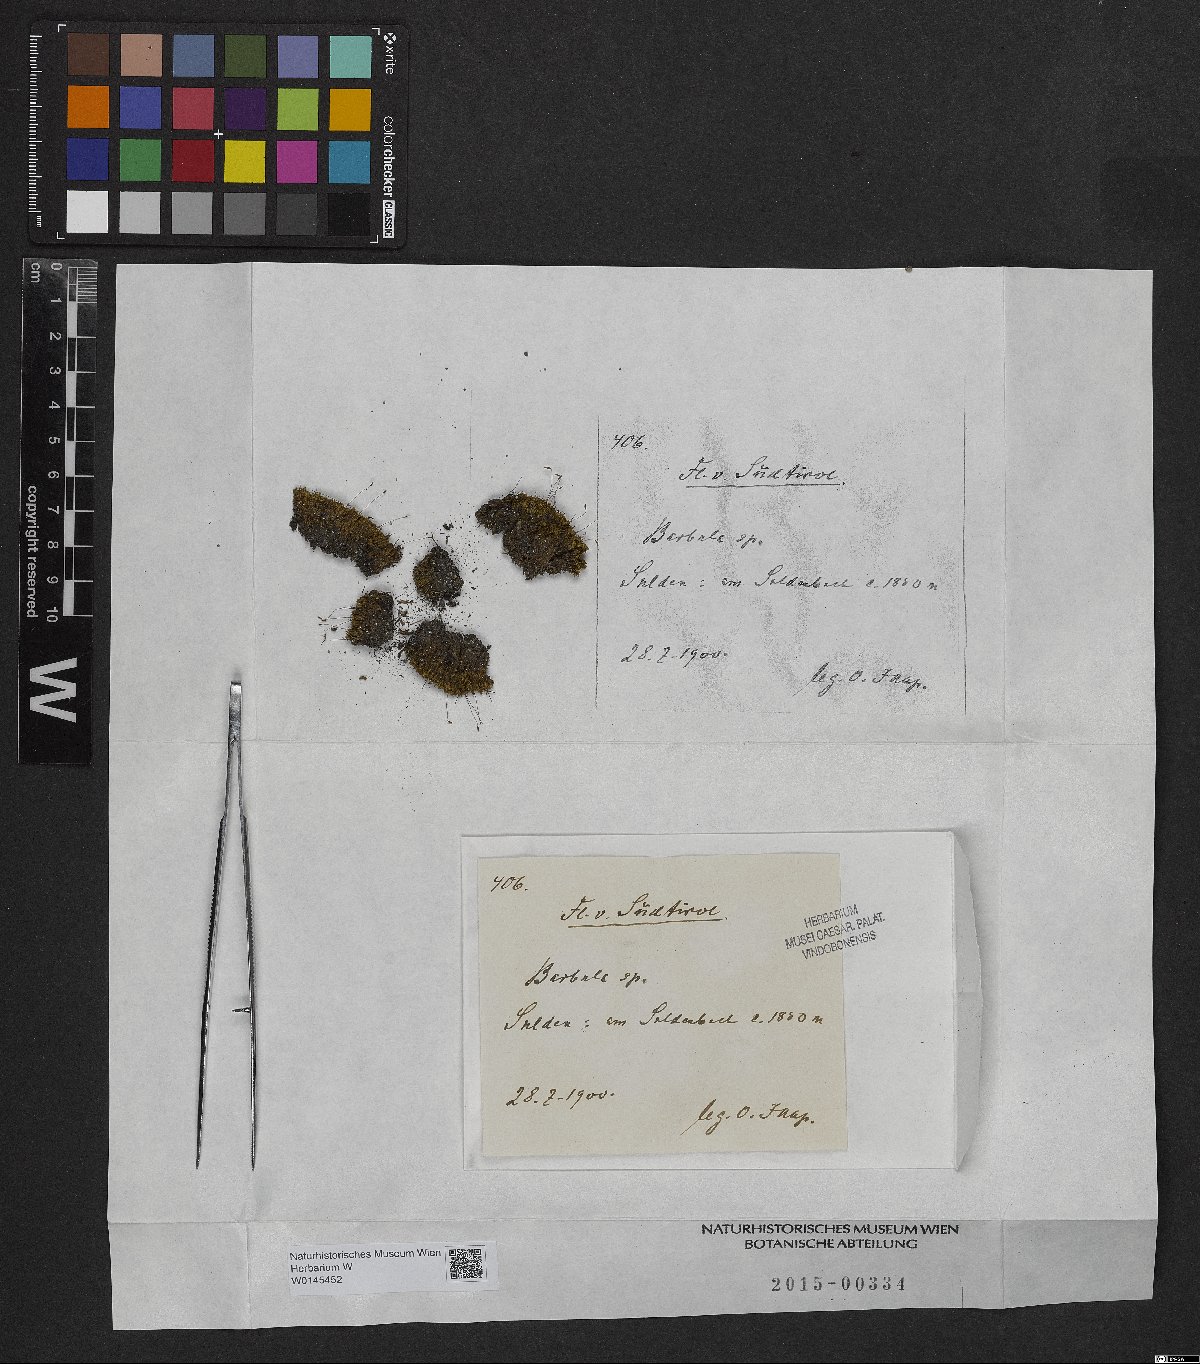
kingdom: Plantae
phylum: Bryophyta
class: Bryopsida
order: Pottiales
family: Pottiaceae
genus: Barbula
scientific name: Barbula
